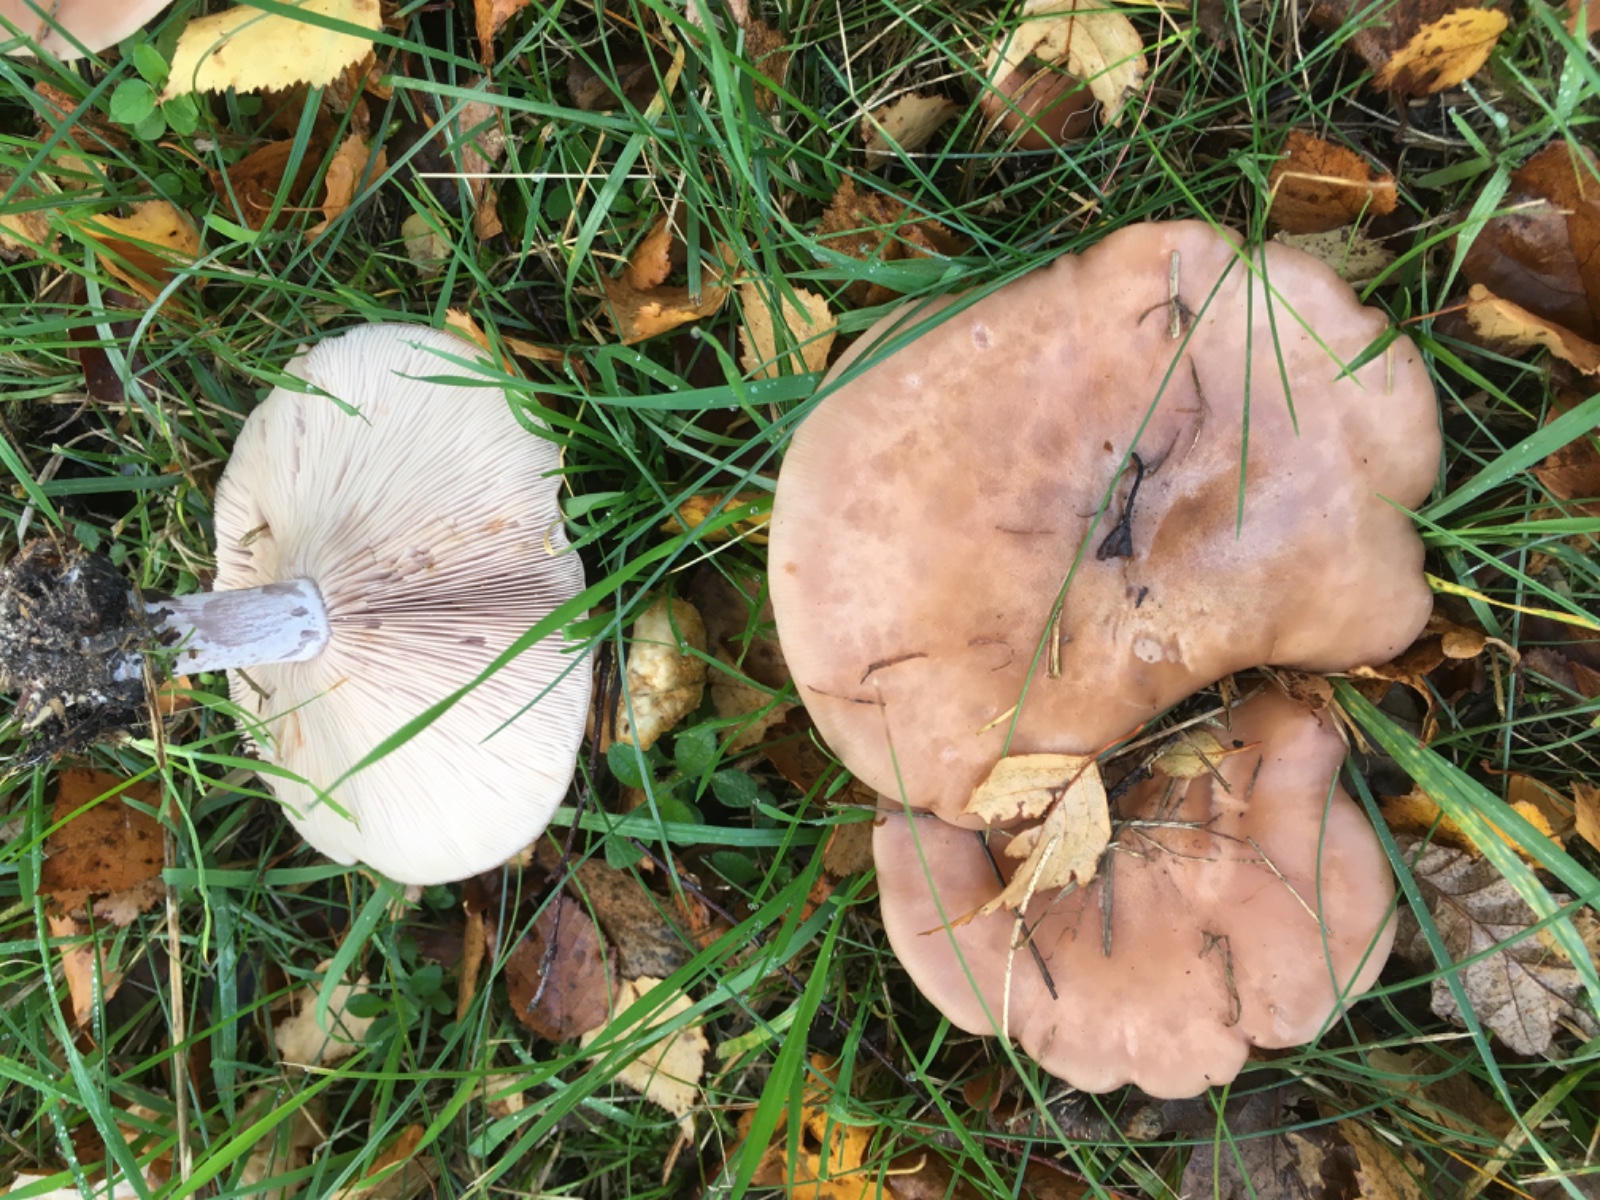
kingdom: Fungi
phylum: Basidiomycota
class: Agaricomycetes
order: Agaricales
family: Tricholomataceae
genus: Lepista
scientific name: Lepista
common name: hekseringshat
